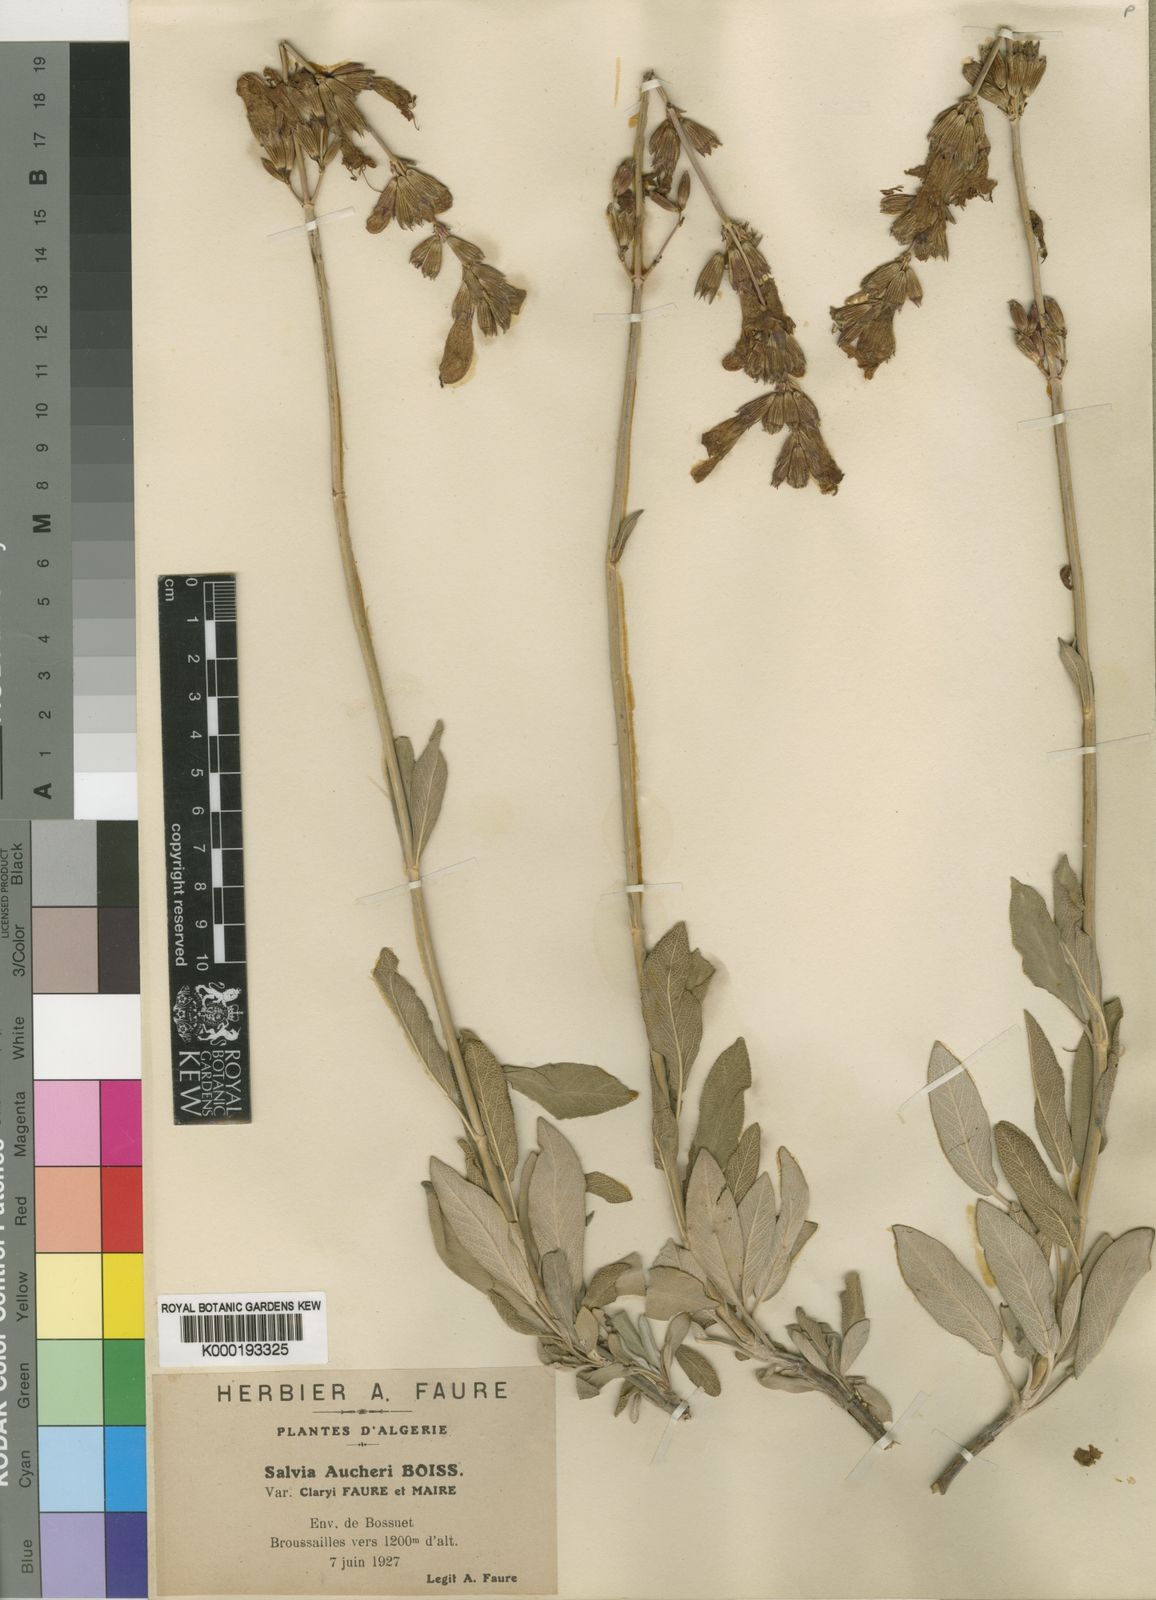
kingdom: Plantae
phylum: Tracheophyta
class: Magnoliopsida
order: Lamiales
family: Lamiaceae
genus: Salvia
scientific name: Salvia aucheri
